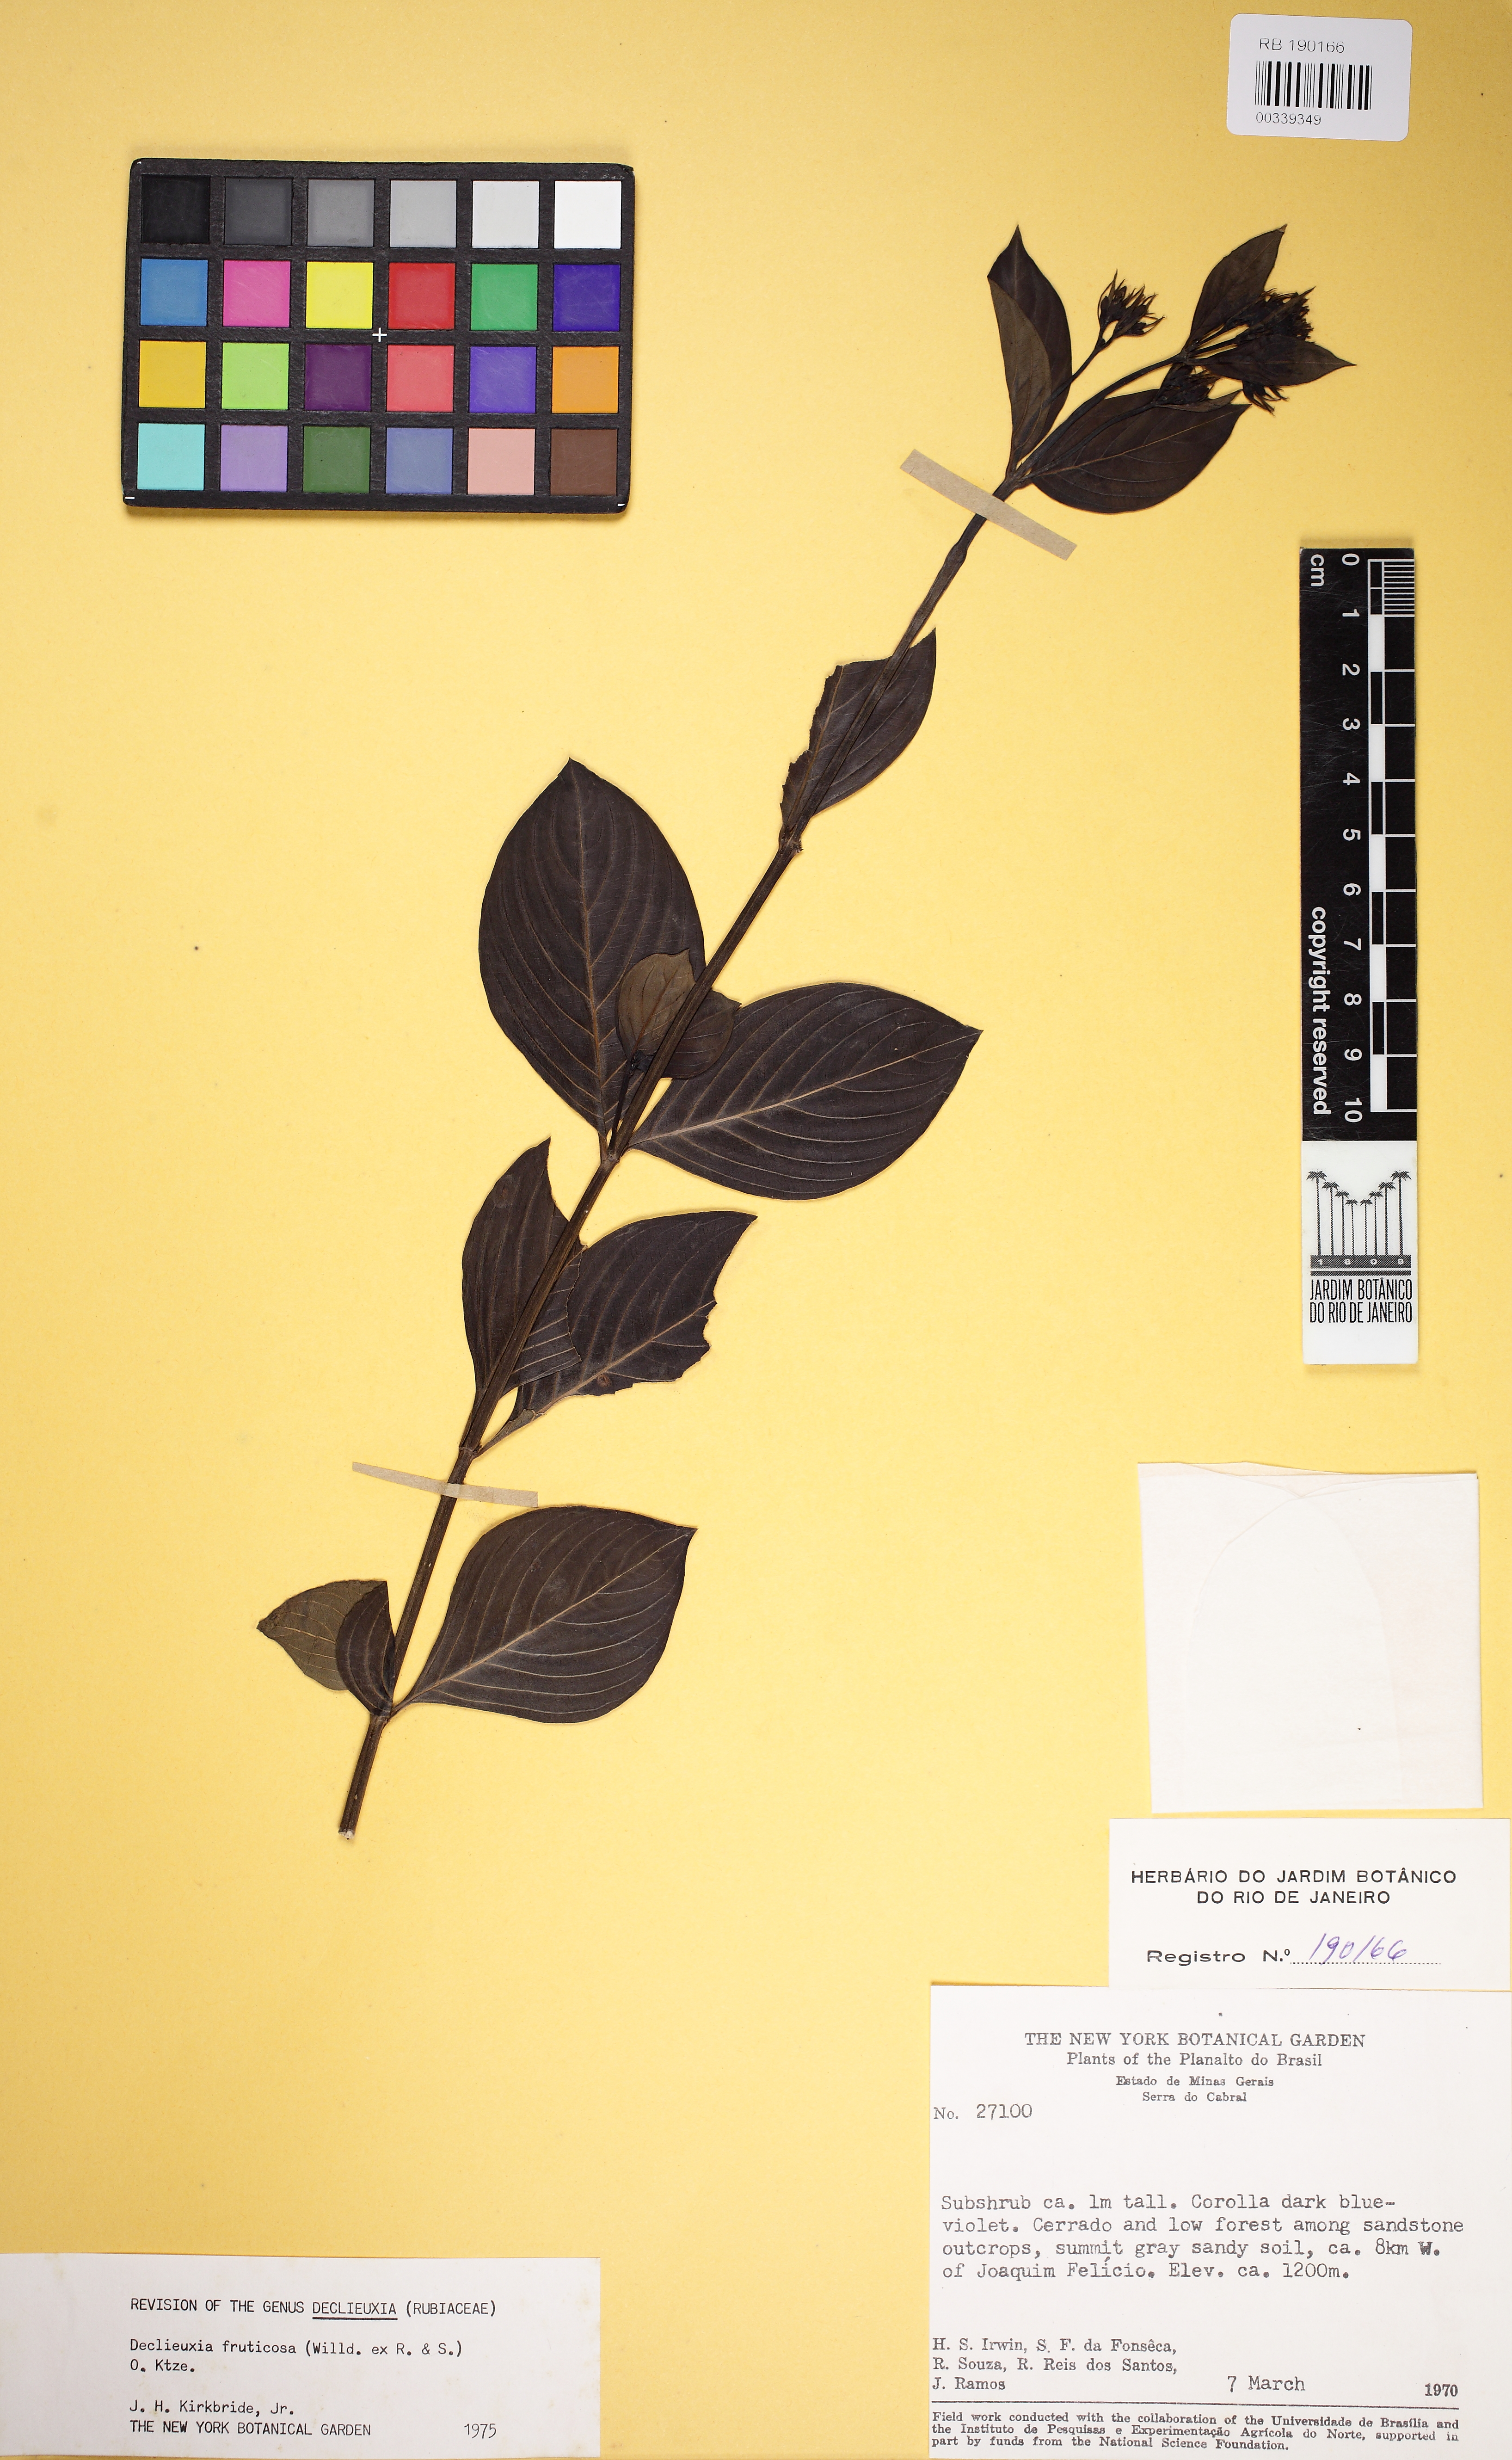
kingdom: Plantae
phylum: Tracheophyta
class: Magnoliopsida
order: Gentianales
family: Rubiaceae
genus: Declieuxia
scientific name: Declieuxia fruticosa
